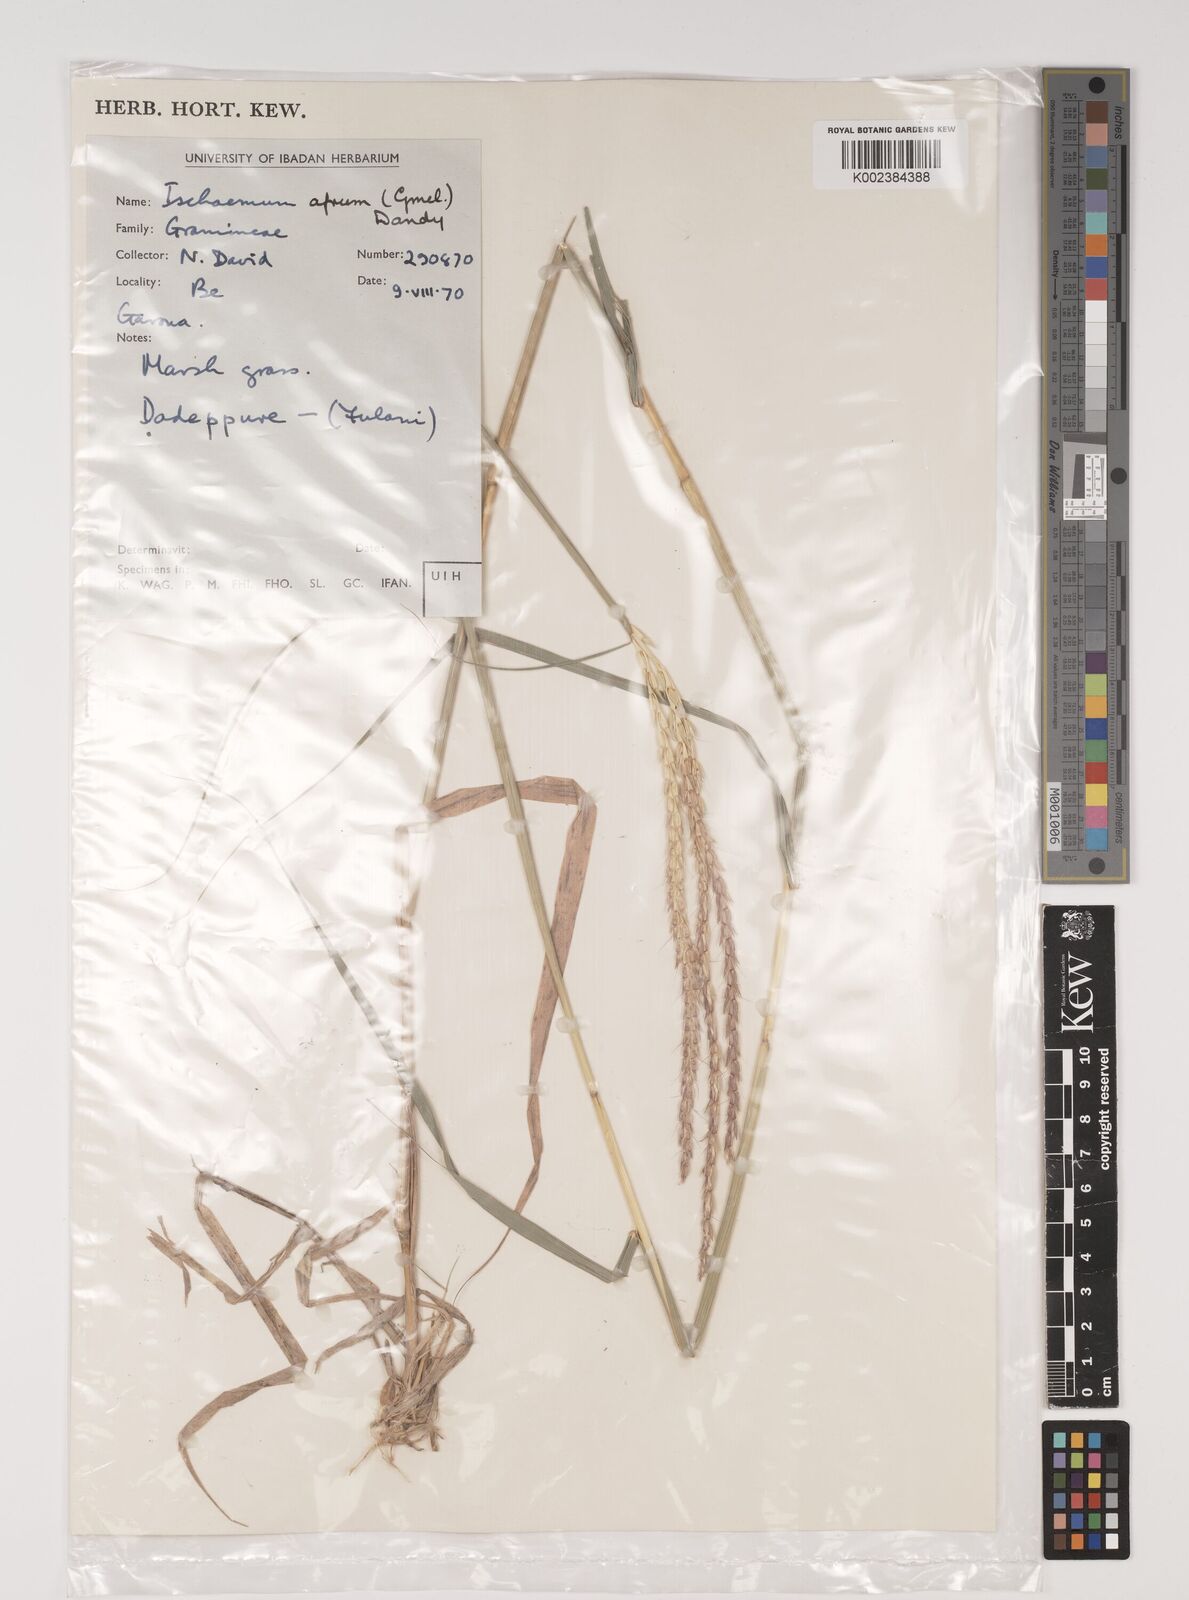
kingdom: Plantae
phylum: Tracheophyta
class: Liliopsida
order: Poales
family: Poaceae
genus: Ischaemum
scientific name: Ischaemum afrum
